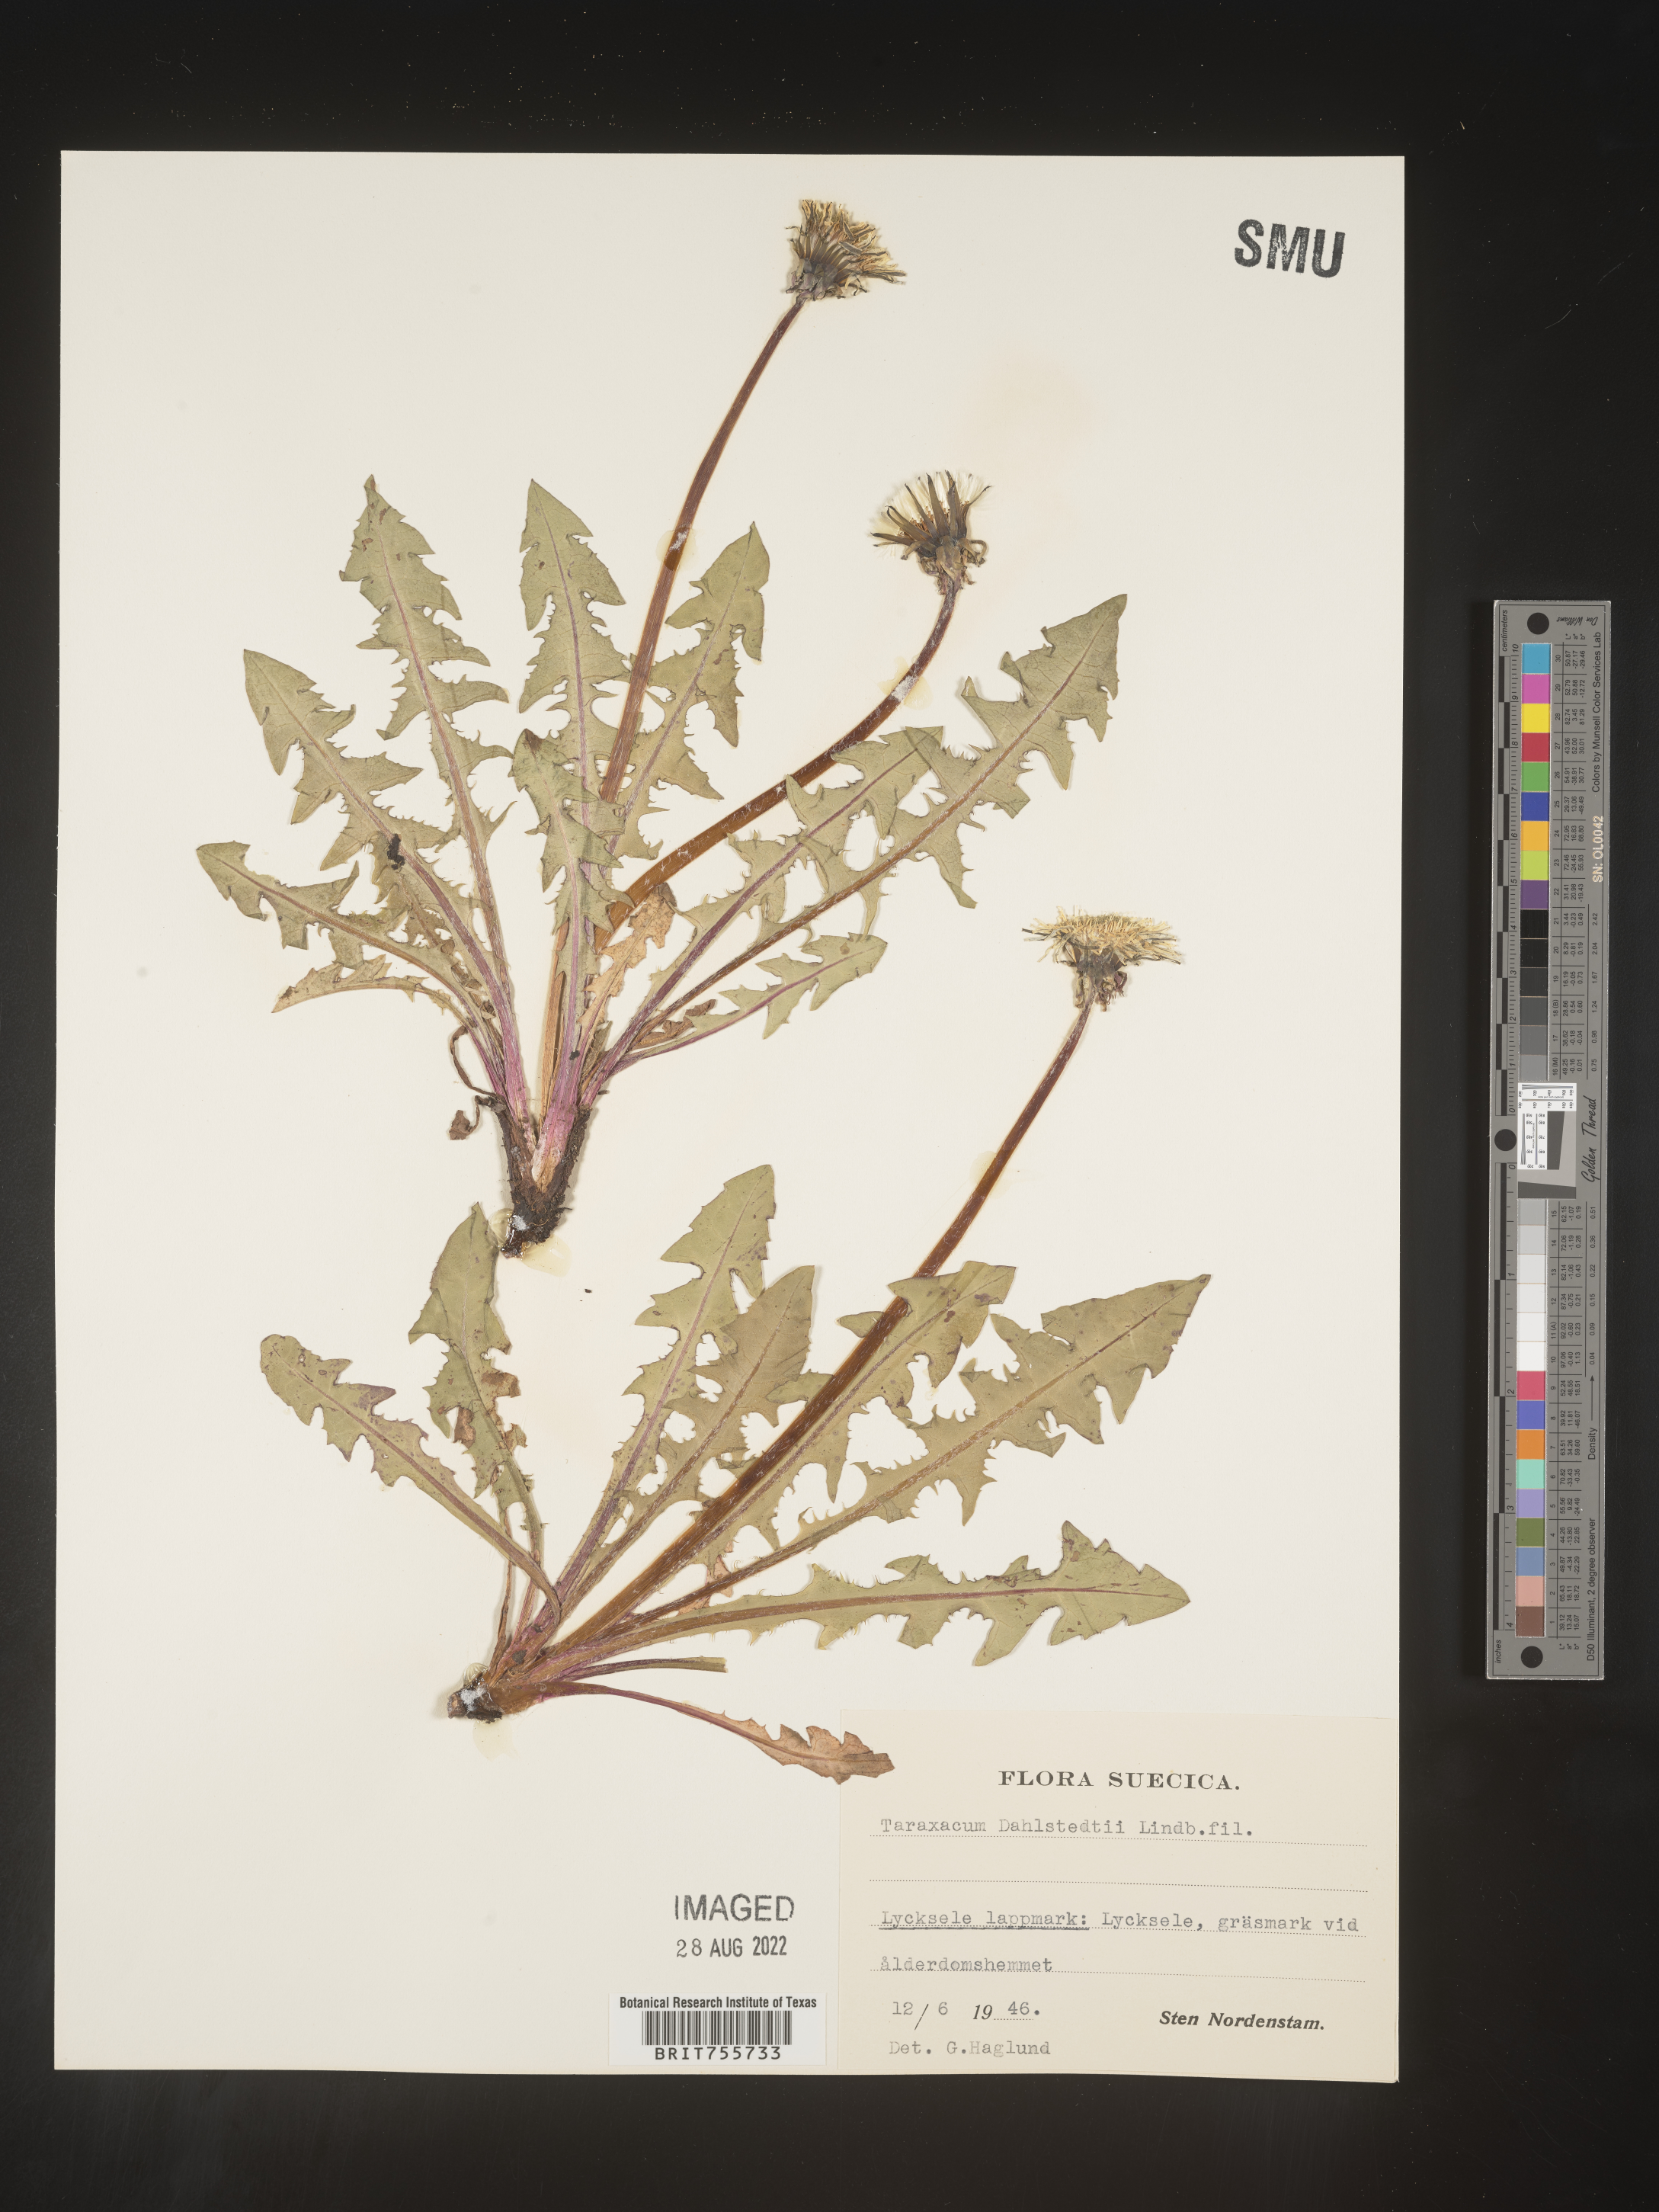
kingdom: Plantae
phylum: Tracheophyta
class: Magnoliopsida
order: Asterales
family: Asteraceae
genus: Taraxacum
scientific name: Taraxacum
